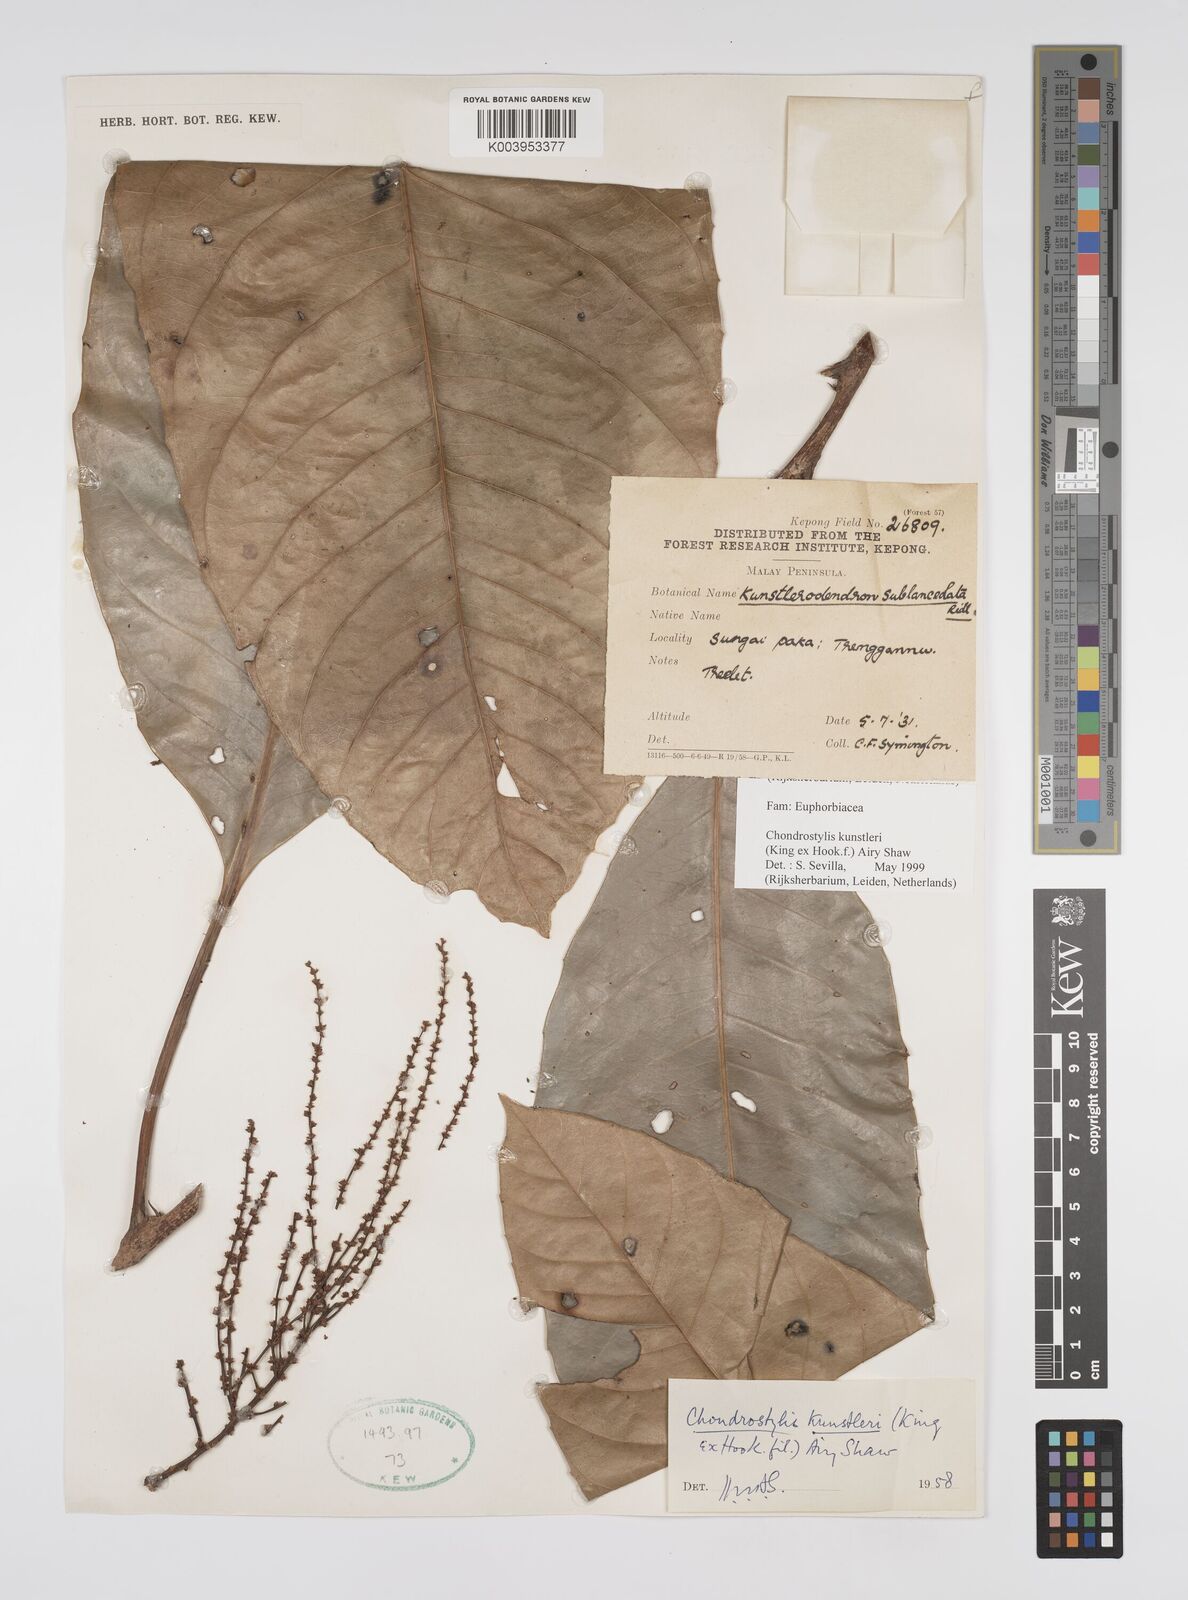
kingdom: Plantae
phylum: Tracheophyta
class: Magnoliopsida
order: Malpighiales
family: Euphorbiaceae
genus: Chondrostylis
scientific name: Chondrostylis kunstleri
